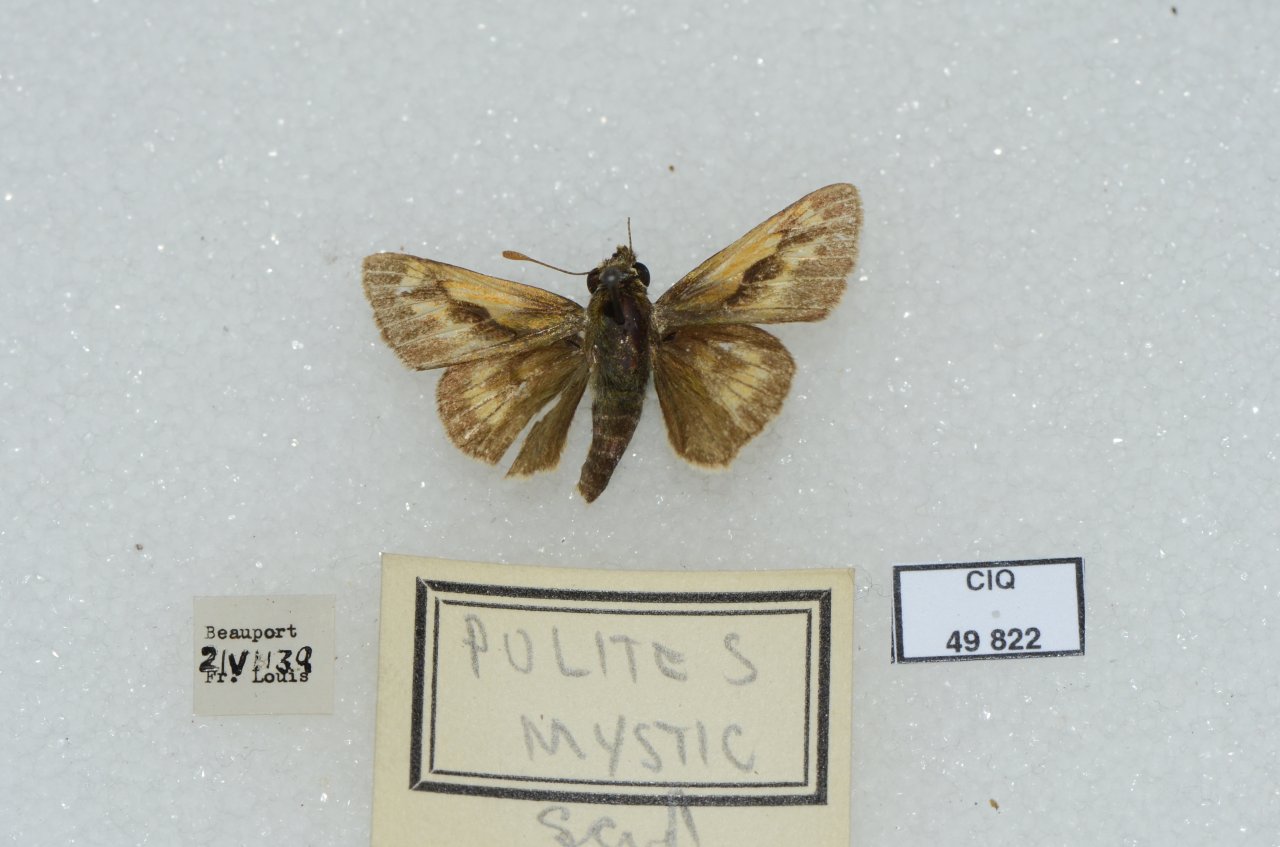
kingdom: Animalia
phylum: Arthropoda
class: Insecta
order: Lepidoptera
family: Hesperiidae
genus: Polites
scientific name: Polites
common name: Long Dash Skipper
